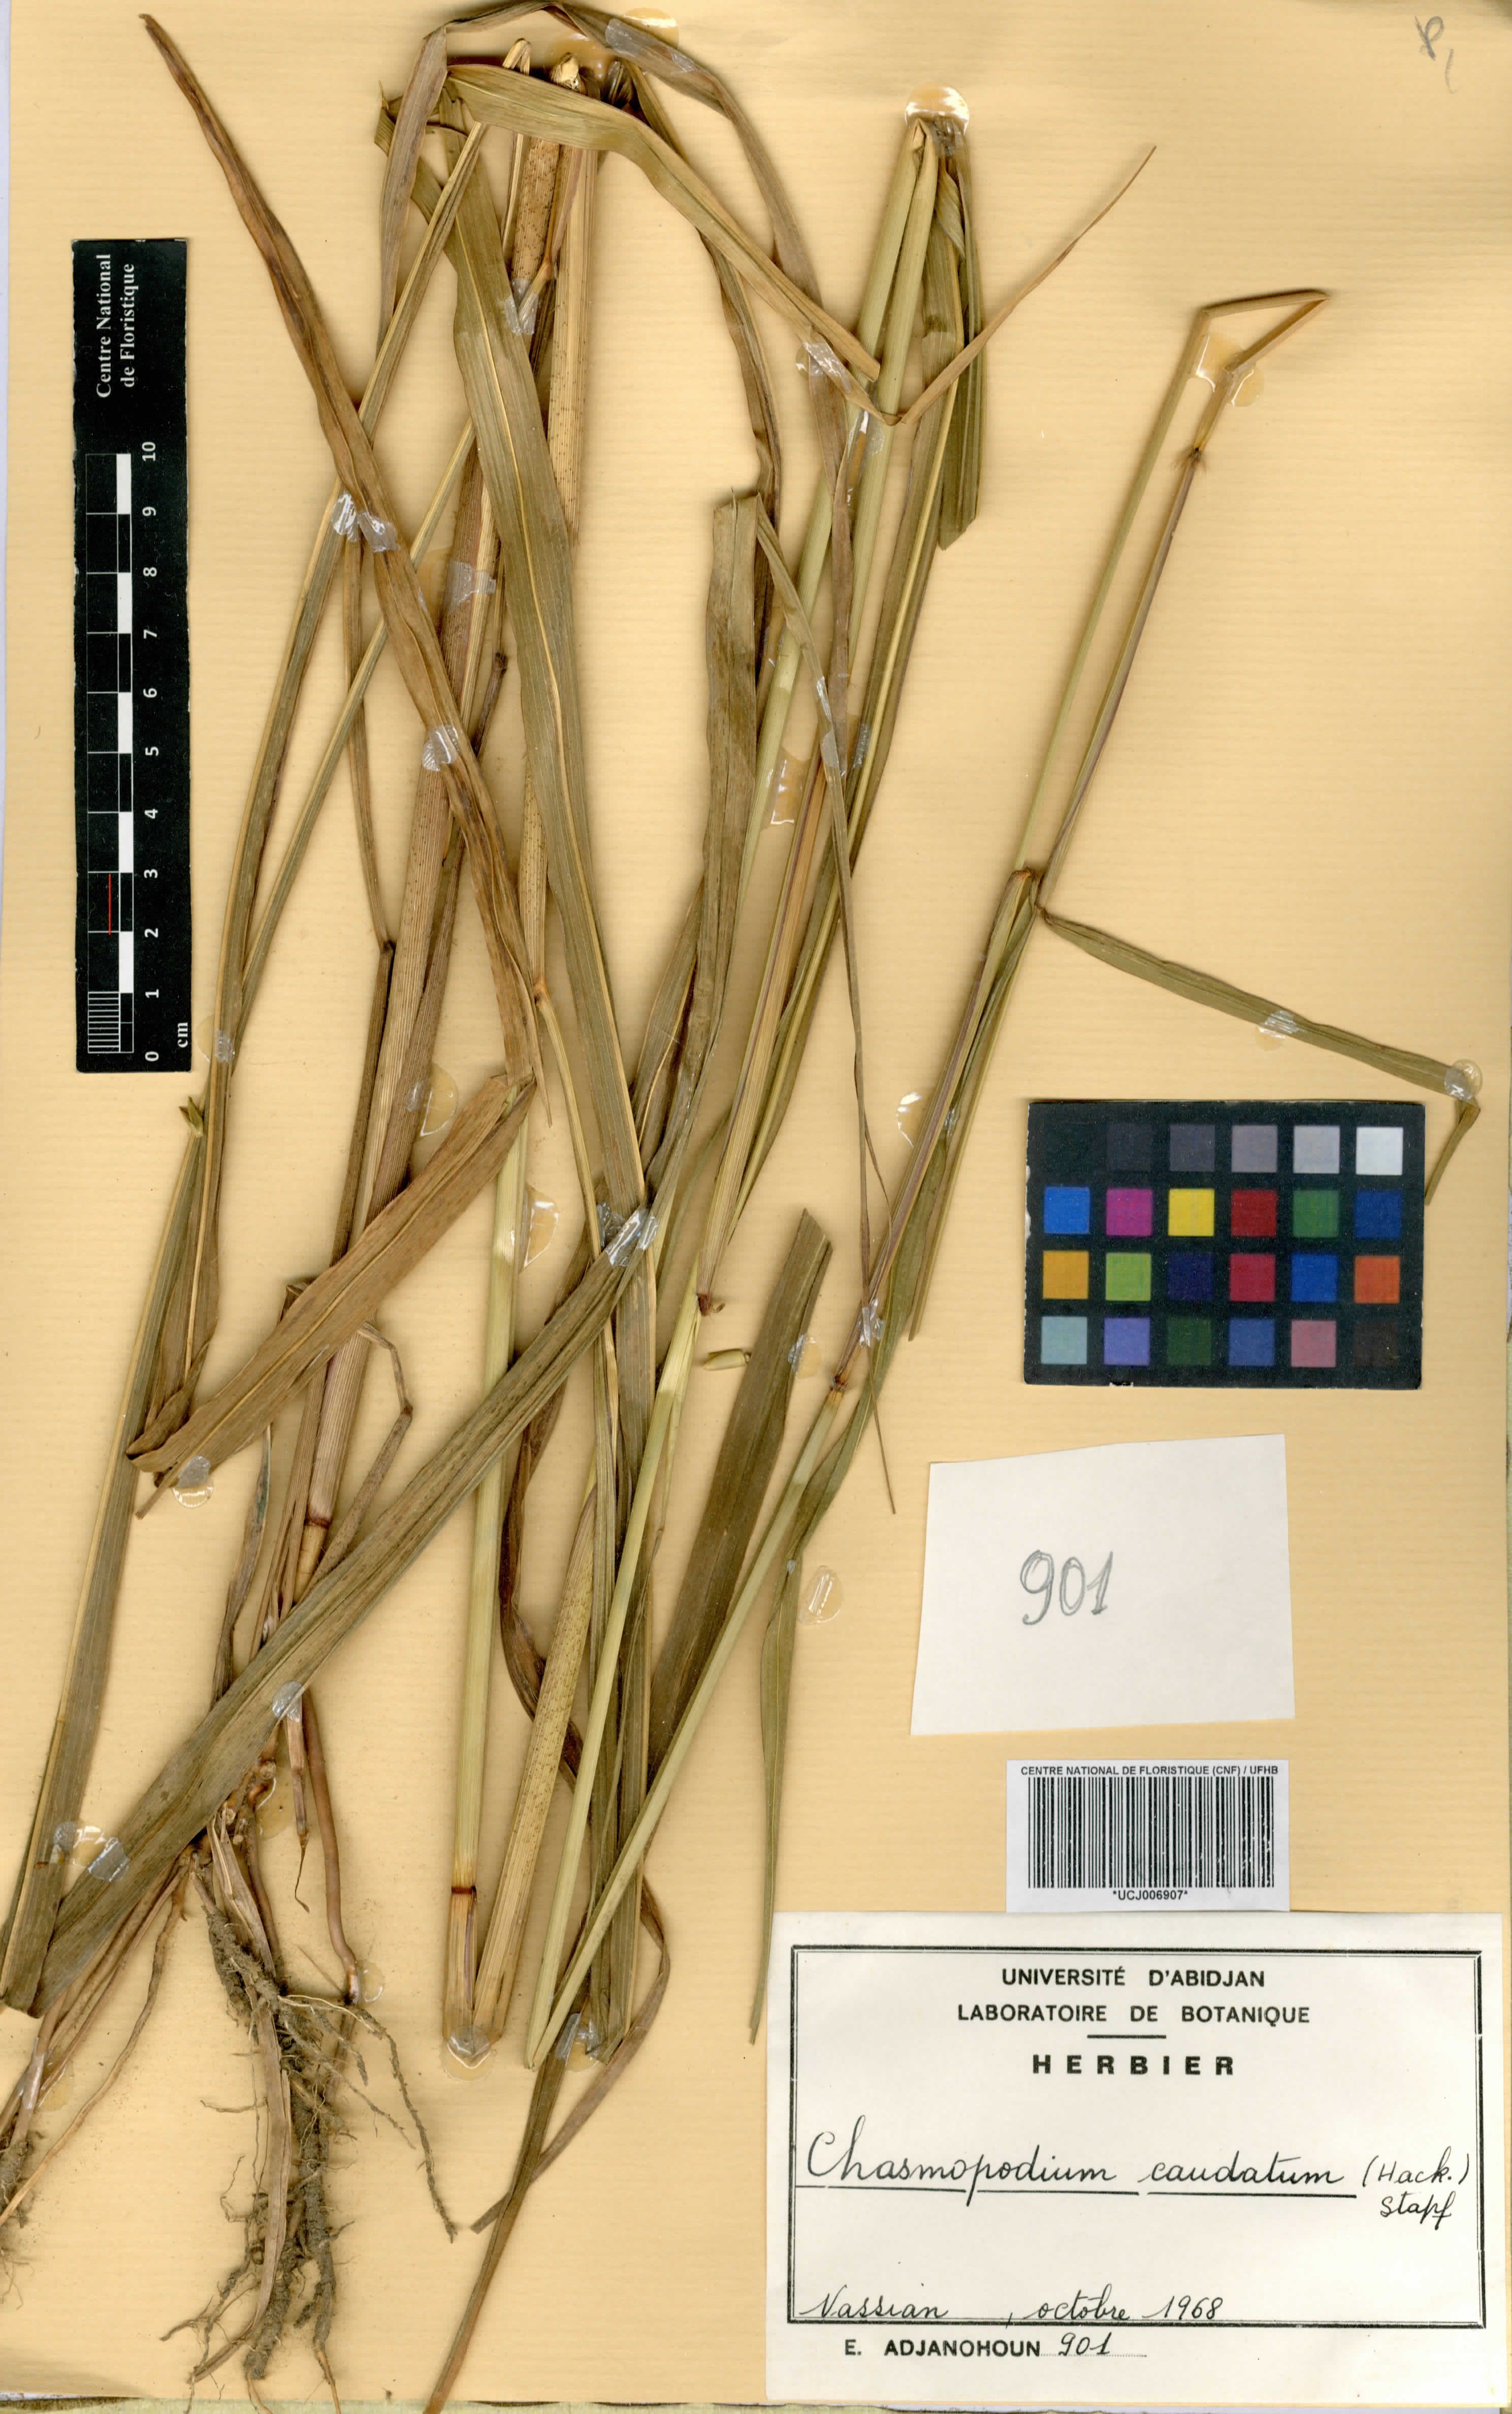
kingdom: Plantae
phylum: Tracheophyta
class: Liliopsida
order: Poales
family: Poaceae
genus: Chasmopodium
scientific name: Chasmopodium caudatum
